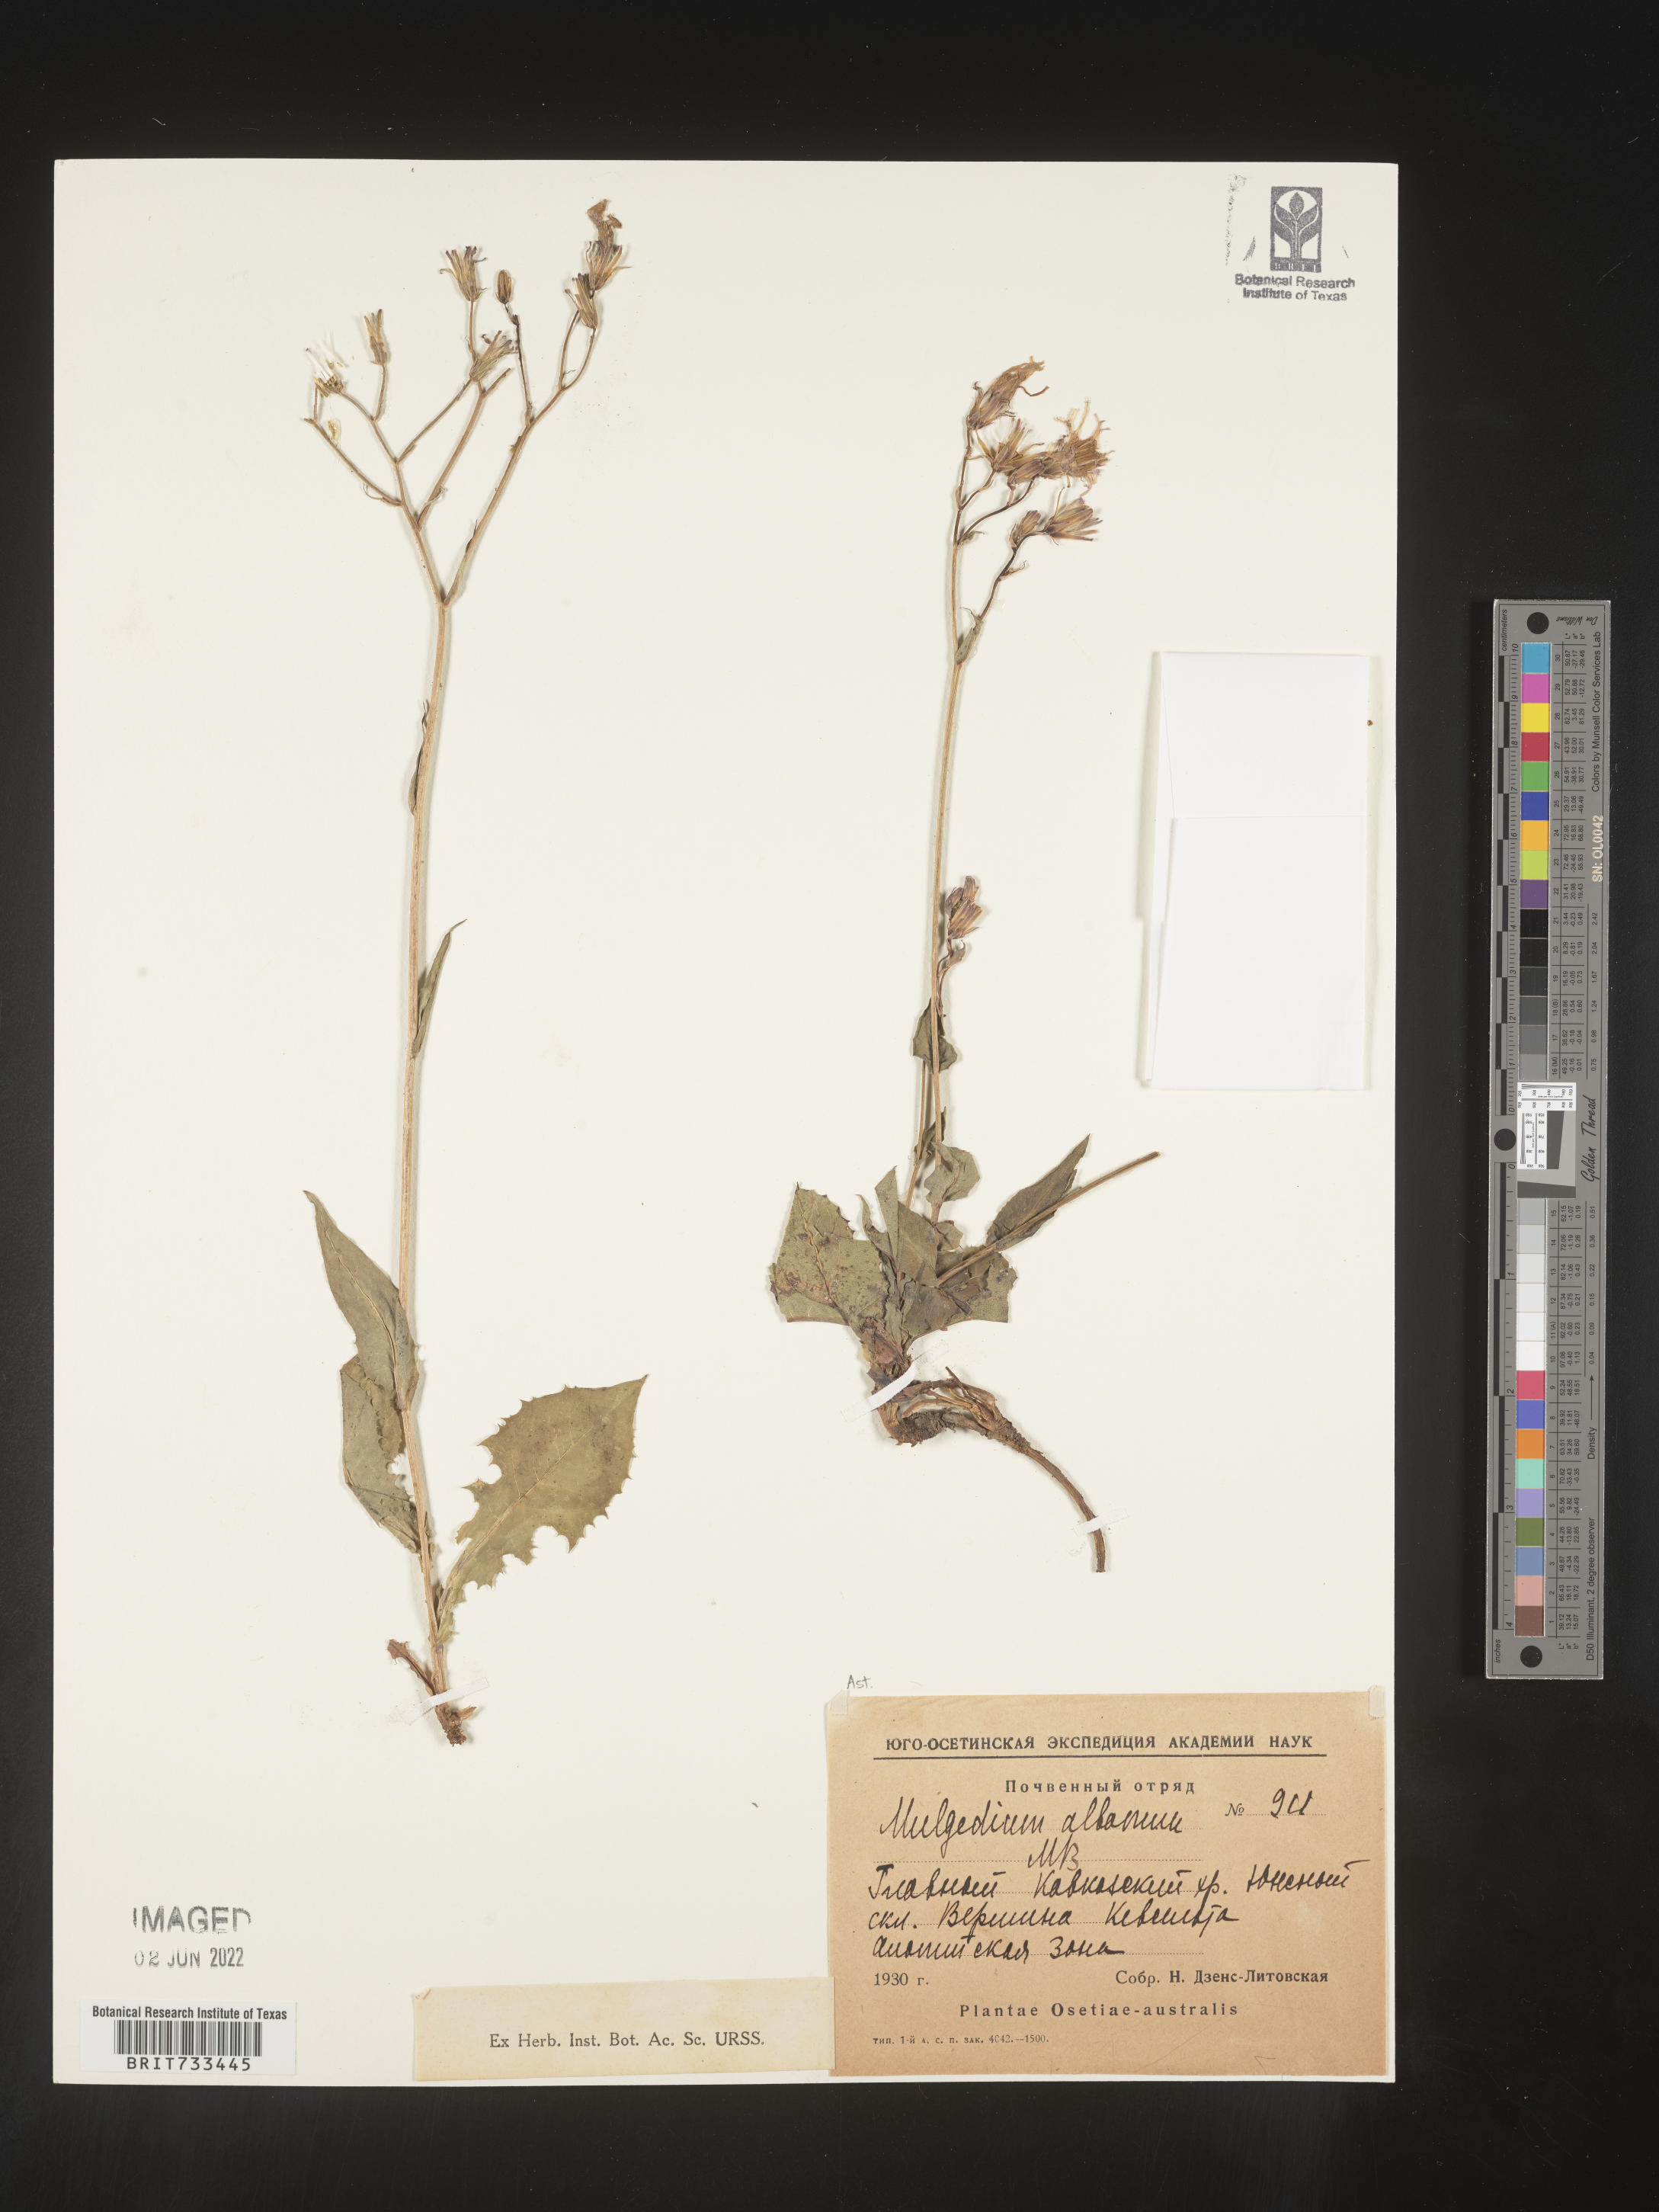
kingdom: Plantae
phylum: Tracheophyta
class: Magnoliopsida
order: Asterales
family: Asteraceae
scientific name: Asteraceae
